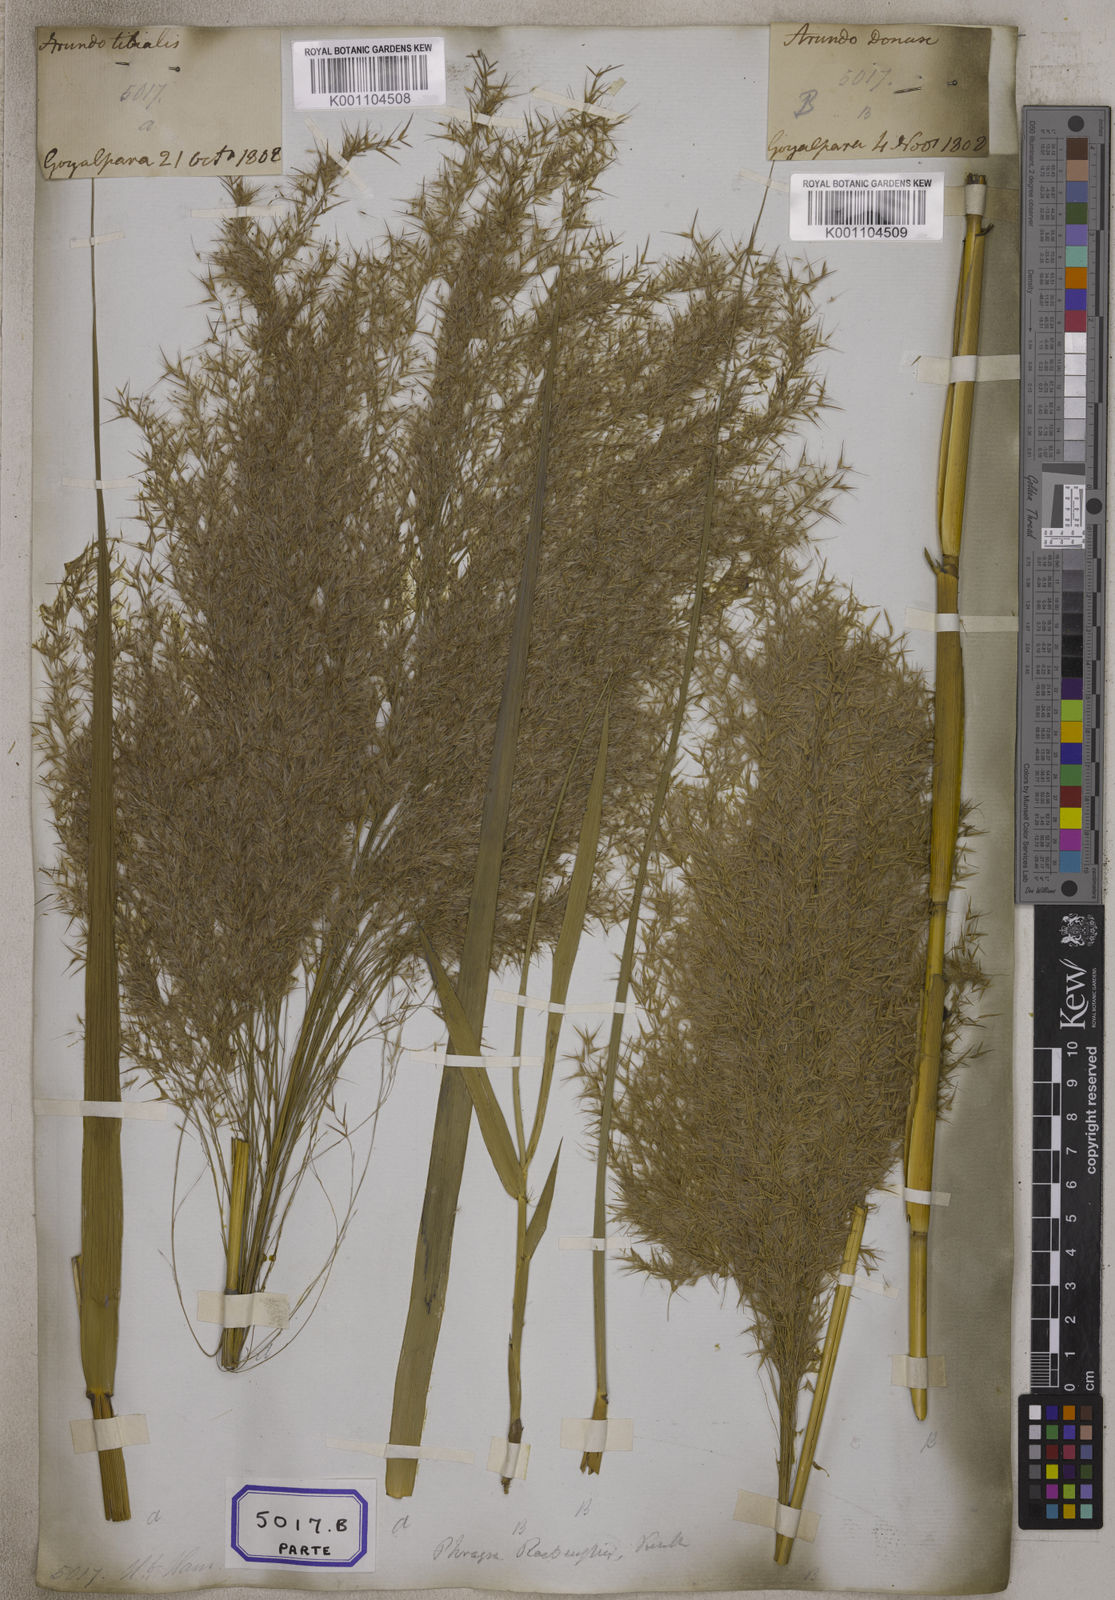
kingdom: Plantae
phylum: Tracheophyta
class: Liliopsida
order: Poales
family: Poaceae
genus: Arundo
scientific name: Arundo
